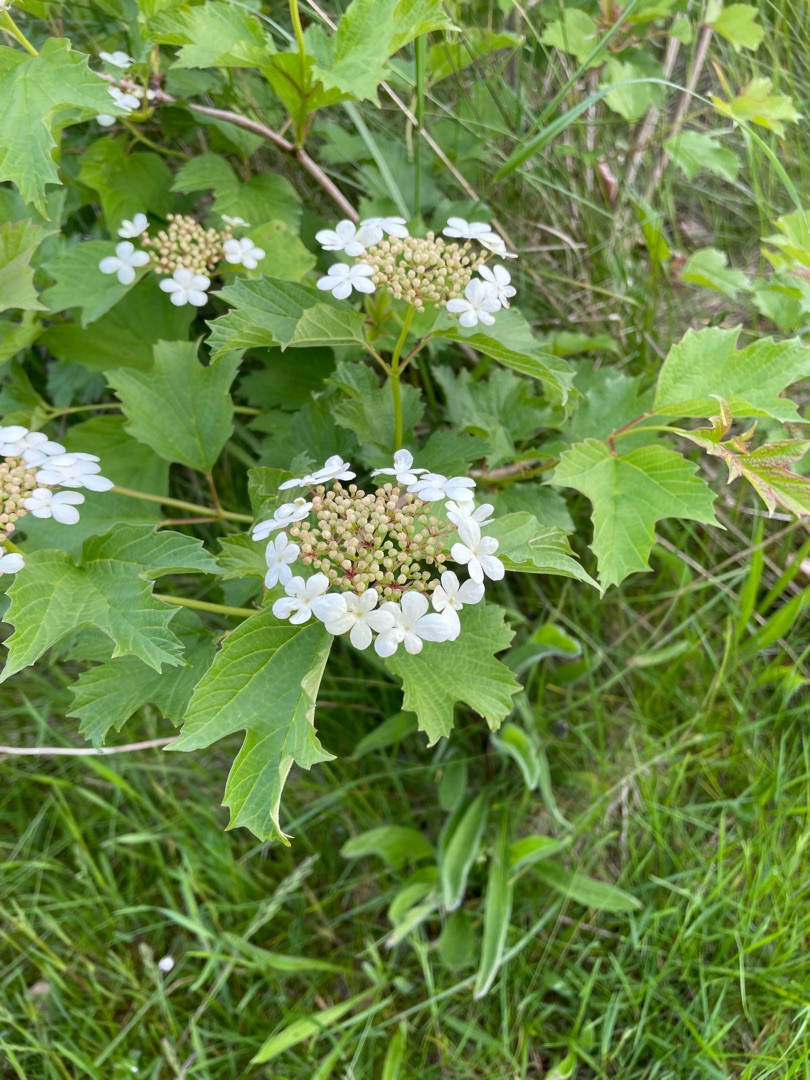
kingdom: Plantae
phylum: Tracheophyta
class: Magnoliopsida
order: Dipsacales
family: Viburnaceae
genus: Viburnum
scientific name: Viburnum opulus
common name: Kvalkved
